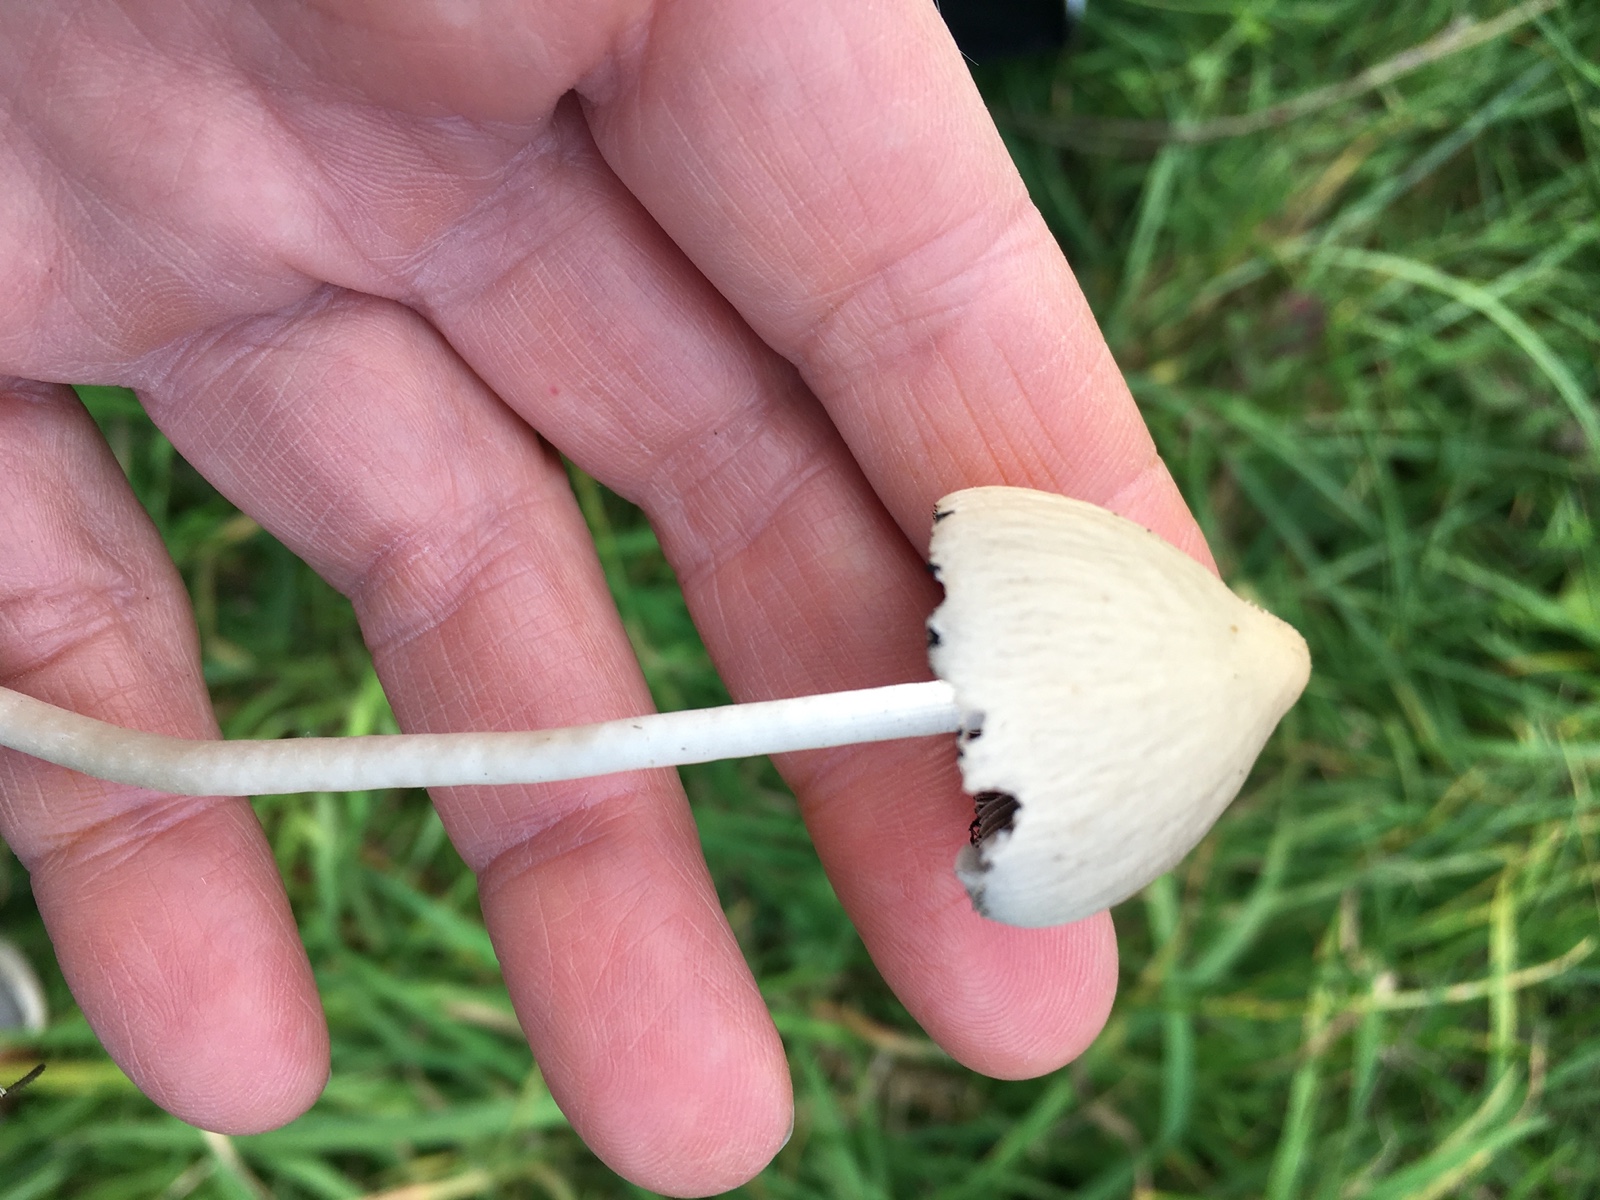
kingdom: Fungi
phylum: Basidiomycota
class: Agaricomycetes
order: Agaricales
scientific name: Agaricales
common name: champignonordenen
